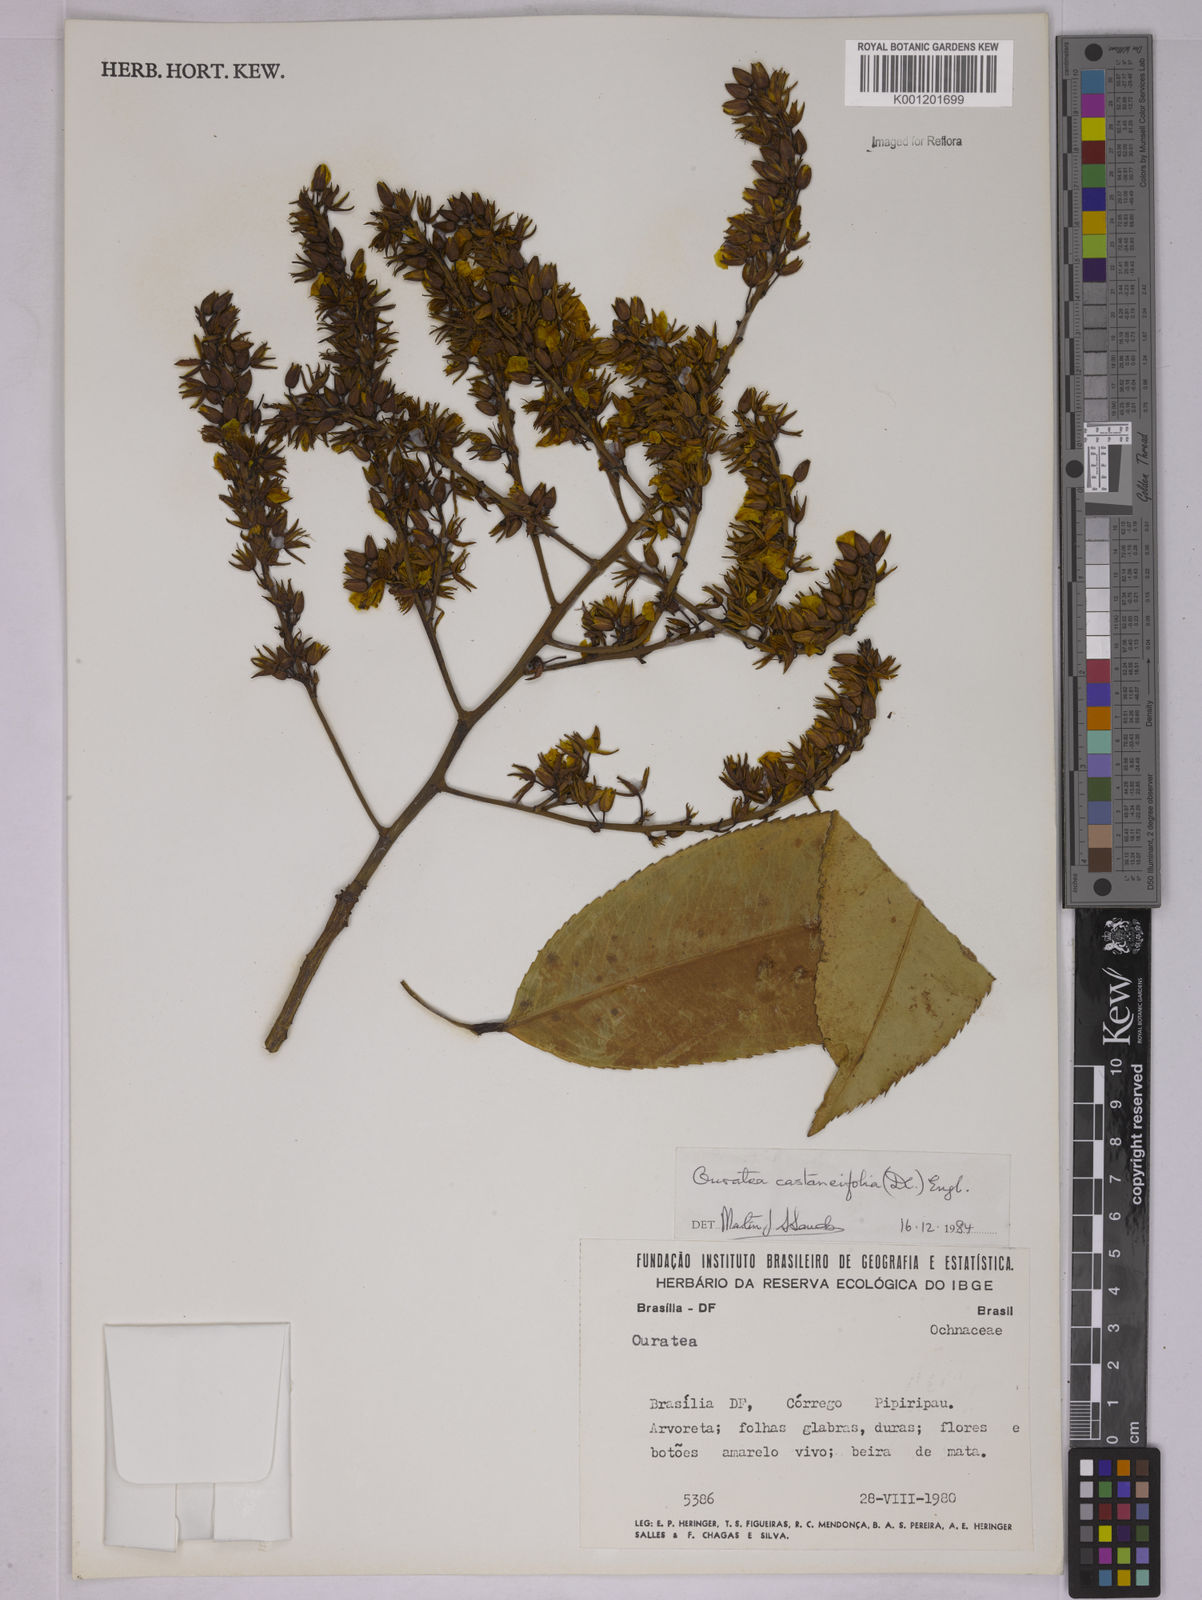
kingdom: Plantae
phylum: Tracheophyta
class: Magnoliopsida
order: Malpighiales
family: Ochnaceae
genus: Ouratea
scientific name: Ouratea castaneifolia
